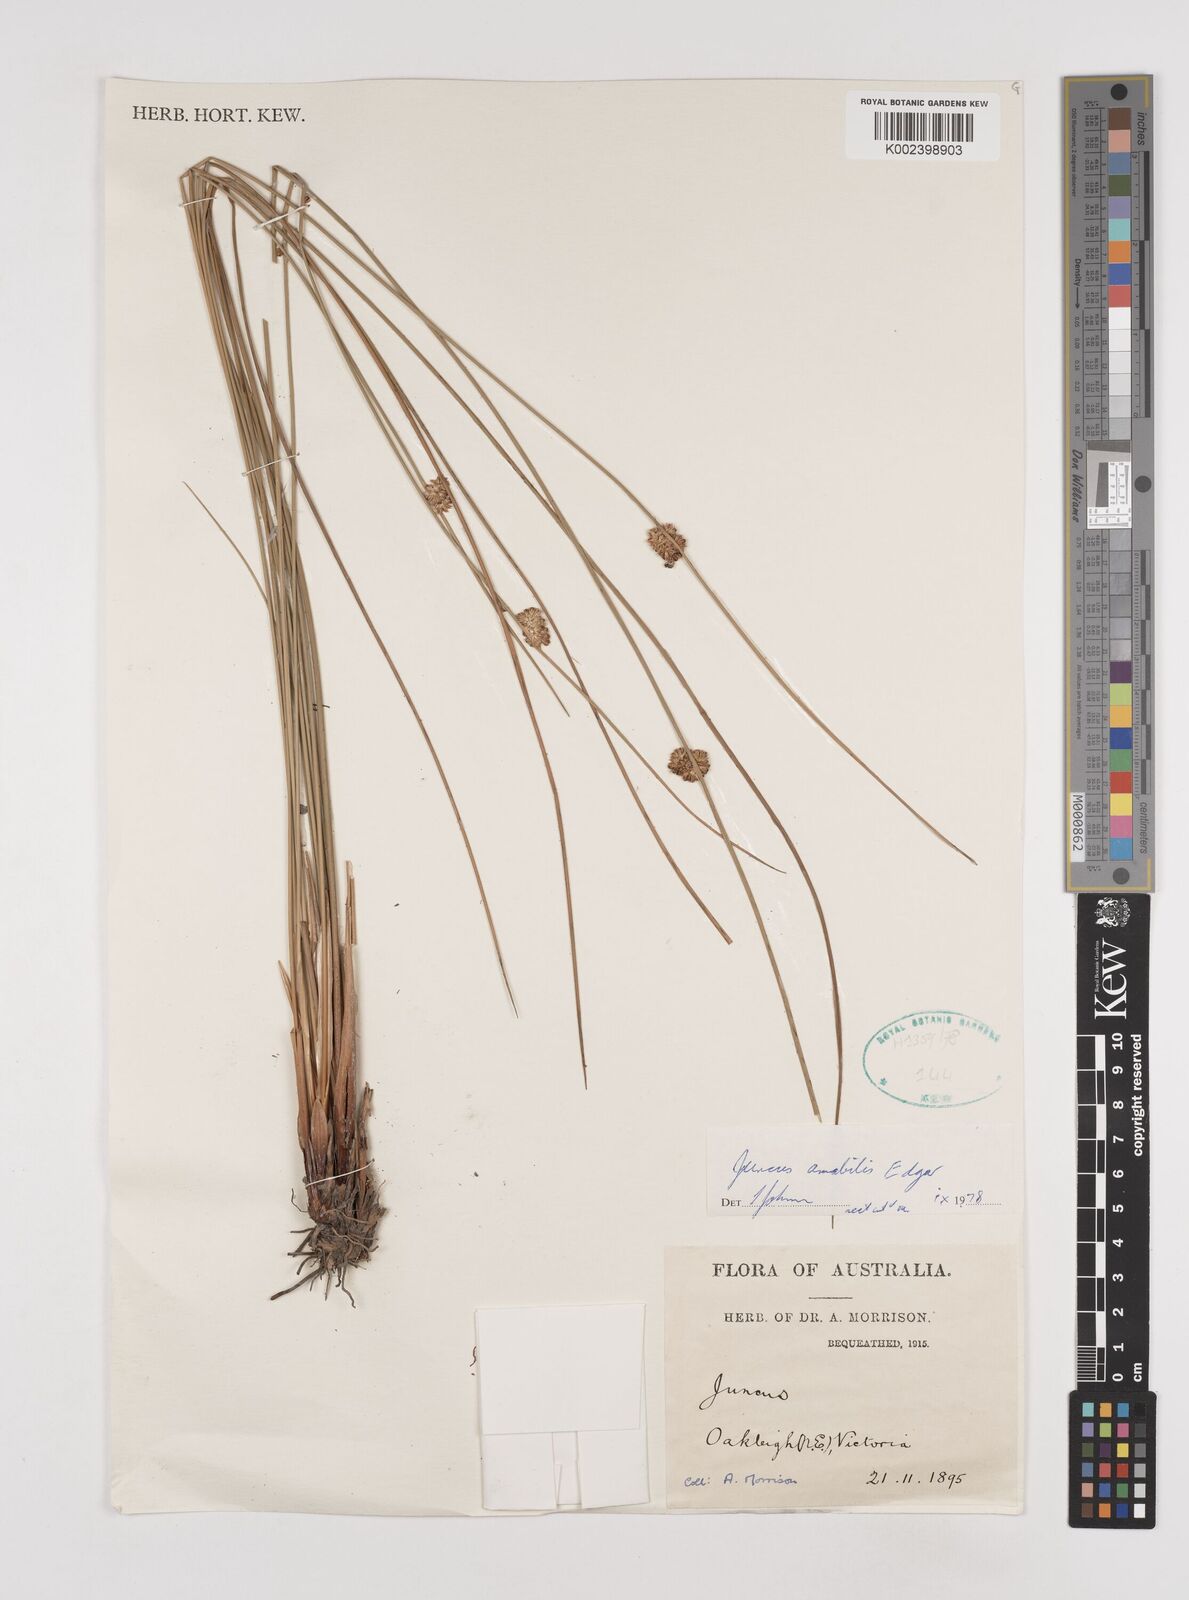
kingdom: Plantae
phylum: Tracheophyta
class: Liliopsida
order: Poales
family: Juncaceae
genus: Juncus
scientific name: Juncus amabilis
